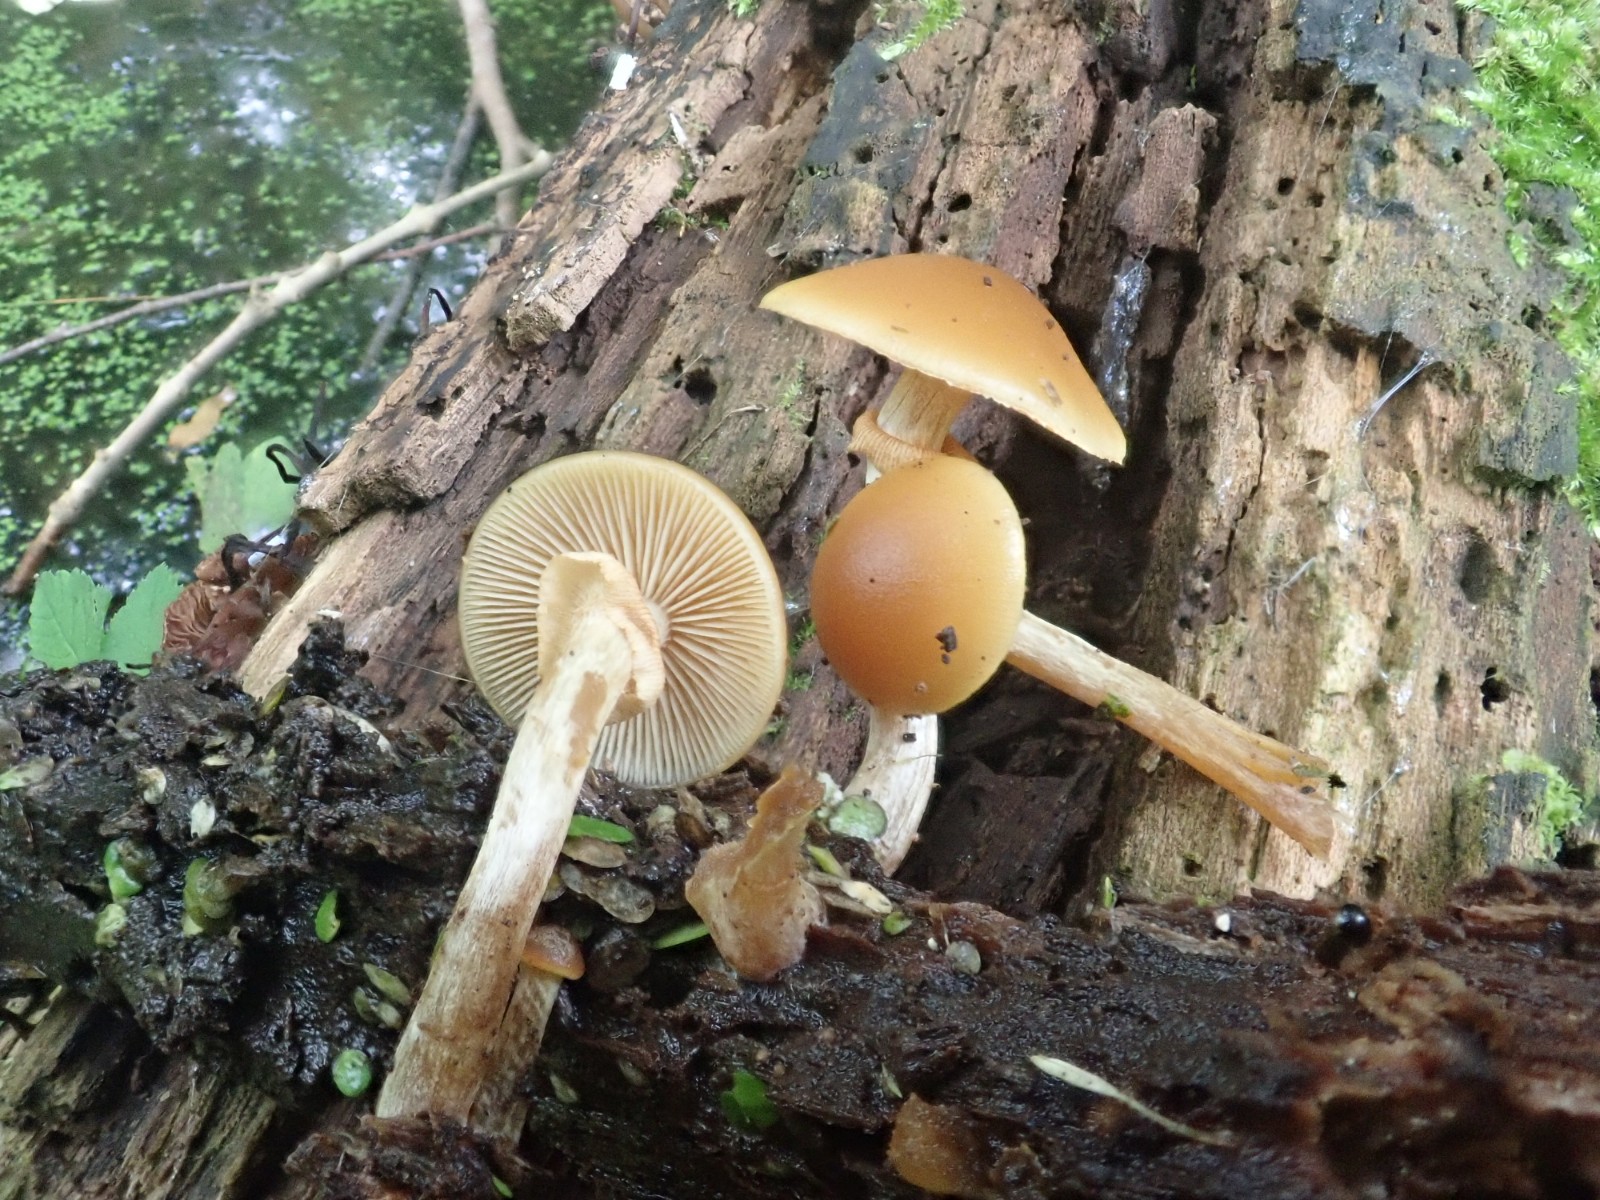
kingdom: Fungi
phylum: Basidiomycota
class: Agaricomycetes
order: Agaricales
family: Hymenogastraceae
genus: Galerina
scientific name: Galerina marginata
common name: randbæltet hjelmhat
